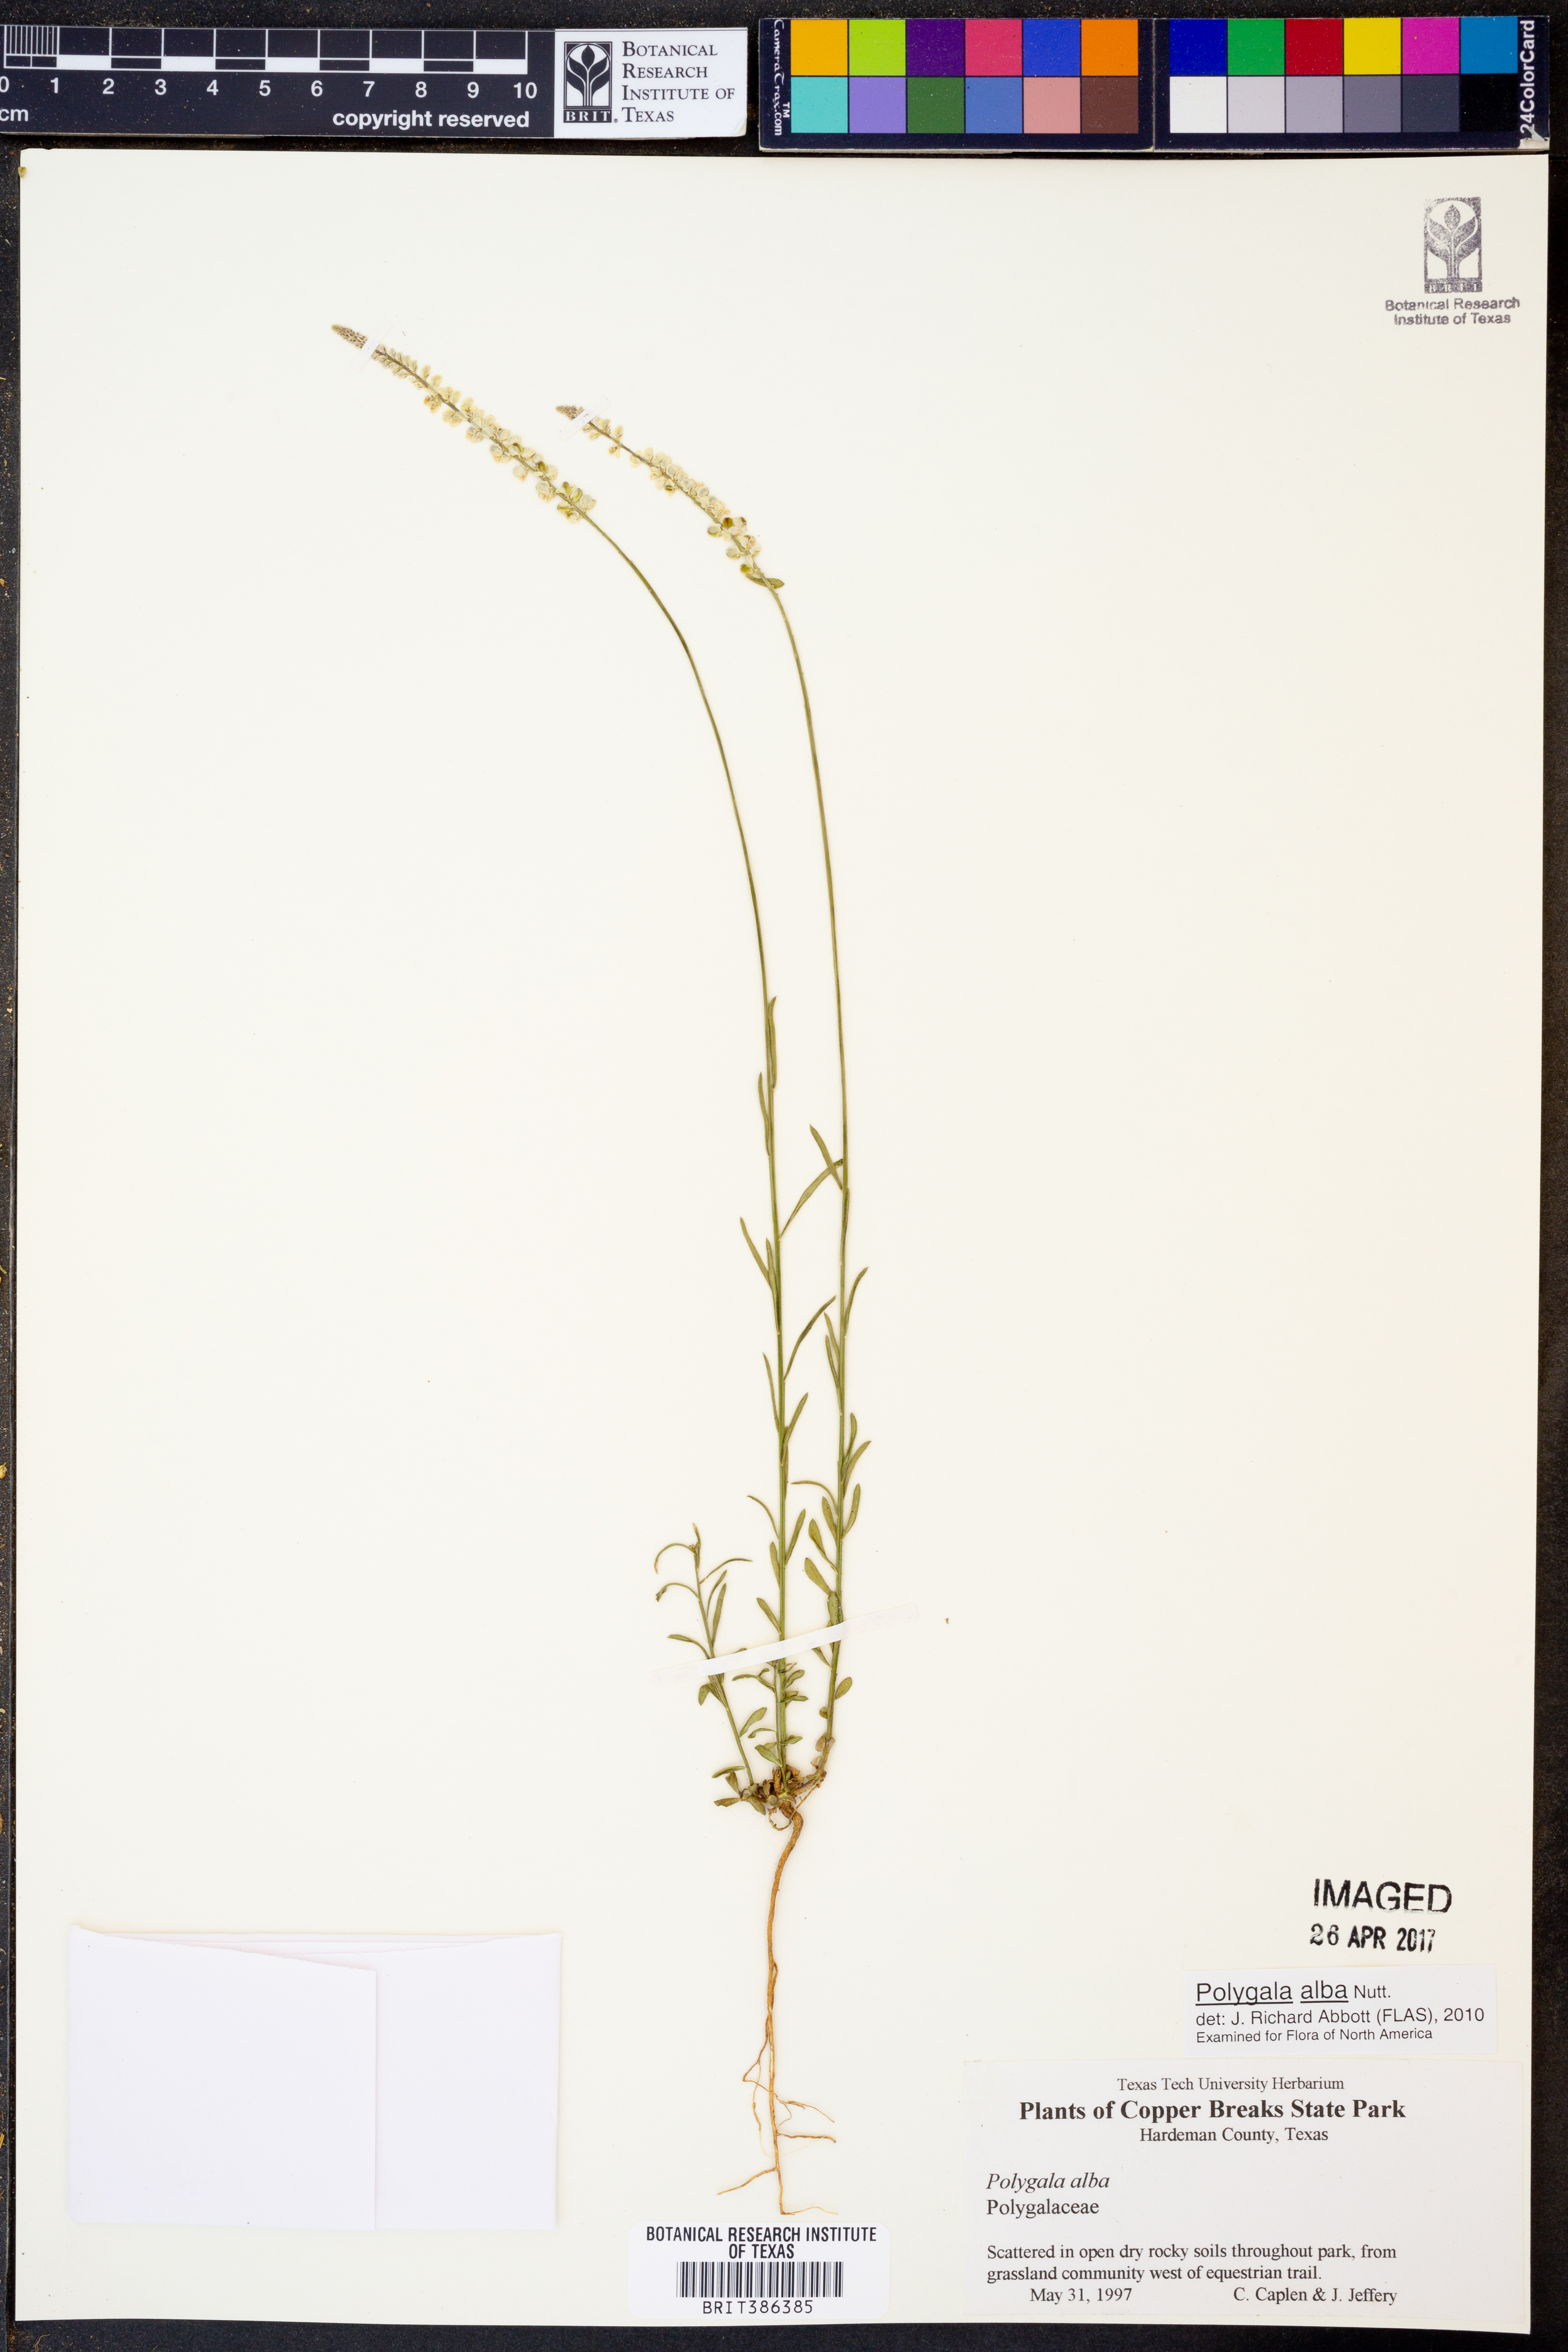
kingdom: Plantae
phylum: Tracheophyta
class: Magnoliopsida
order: Fabales
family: Polygalaceae
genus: Polygala
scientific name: Polygala alba
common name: White milkwort
